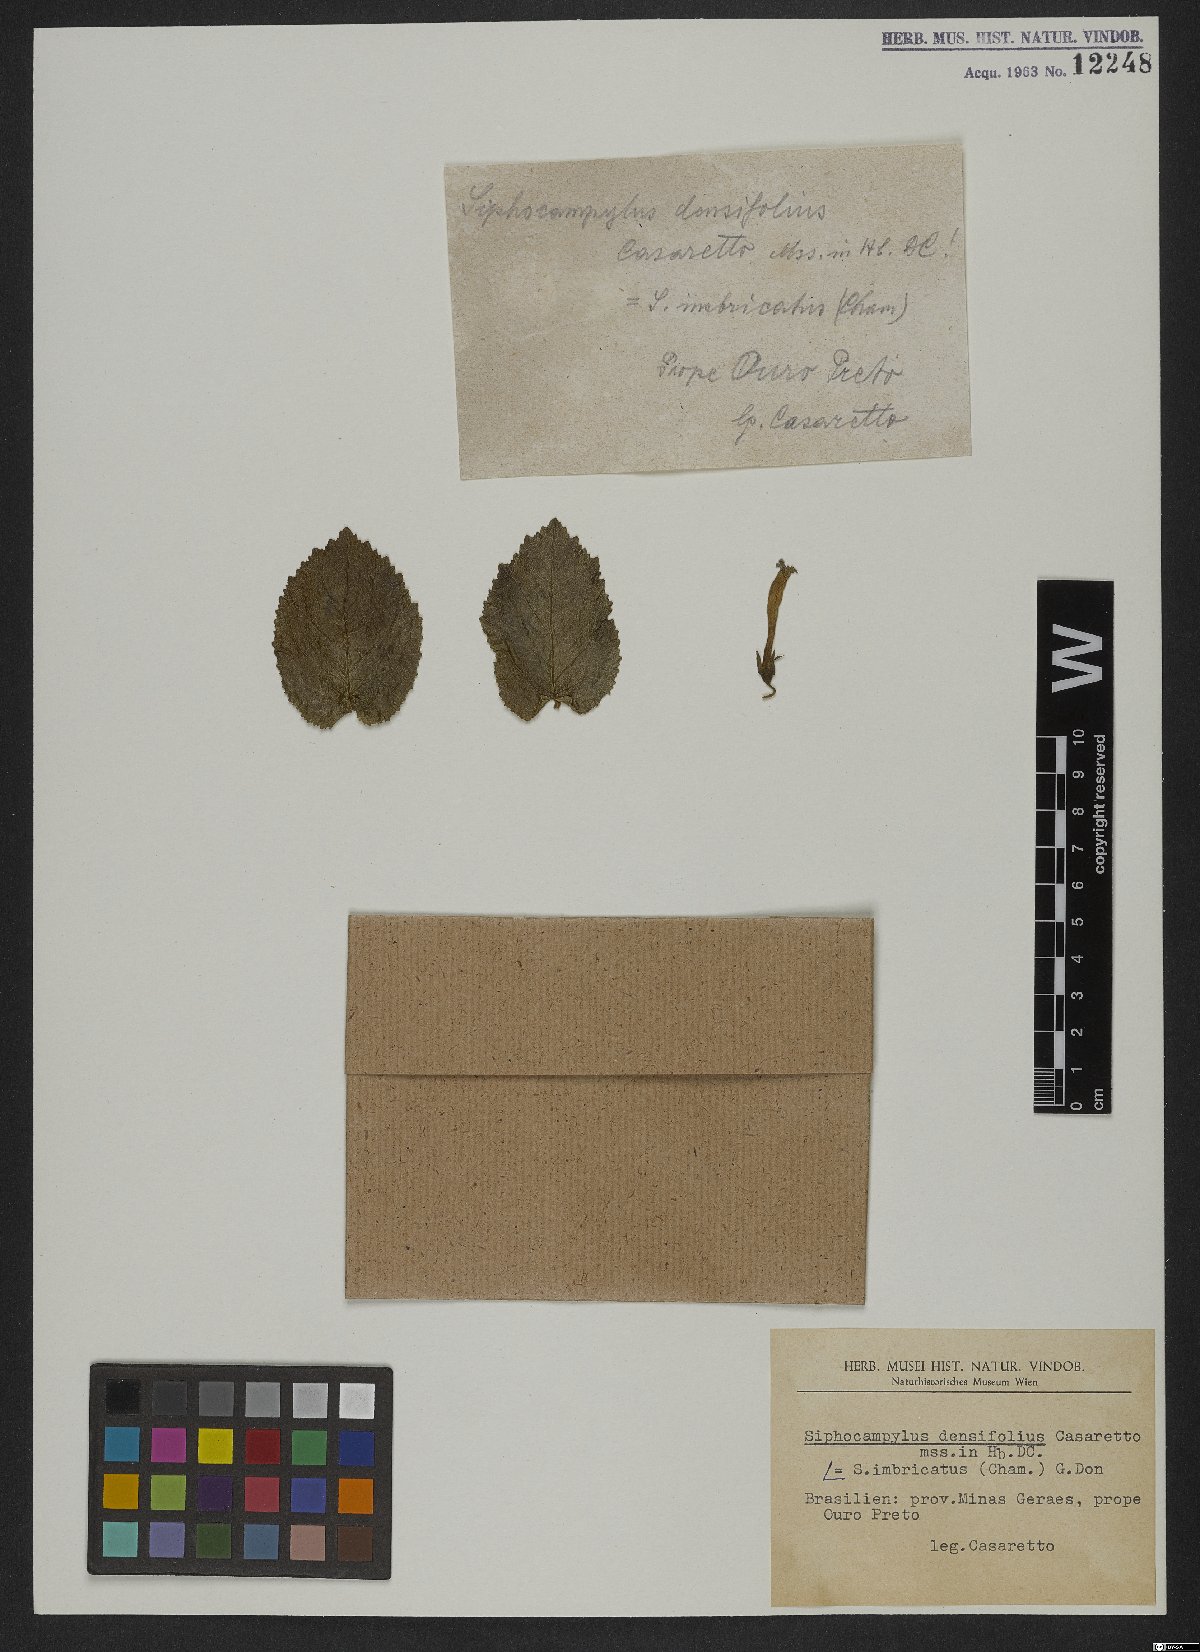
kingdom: Plantae
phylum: Tracheophyta
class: Magnoliopsida
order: Asterales
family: Campanulaceae
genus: Siphocampylus
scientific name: Siphocampylus imbricatus
